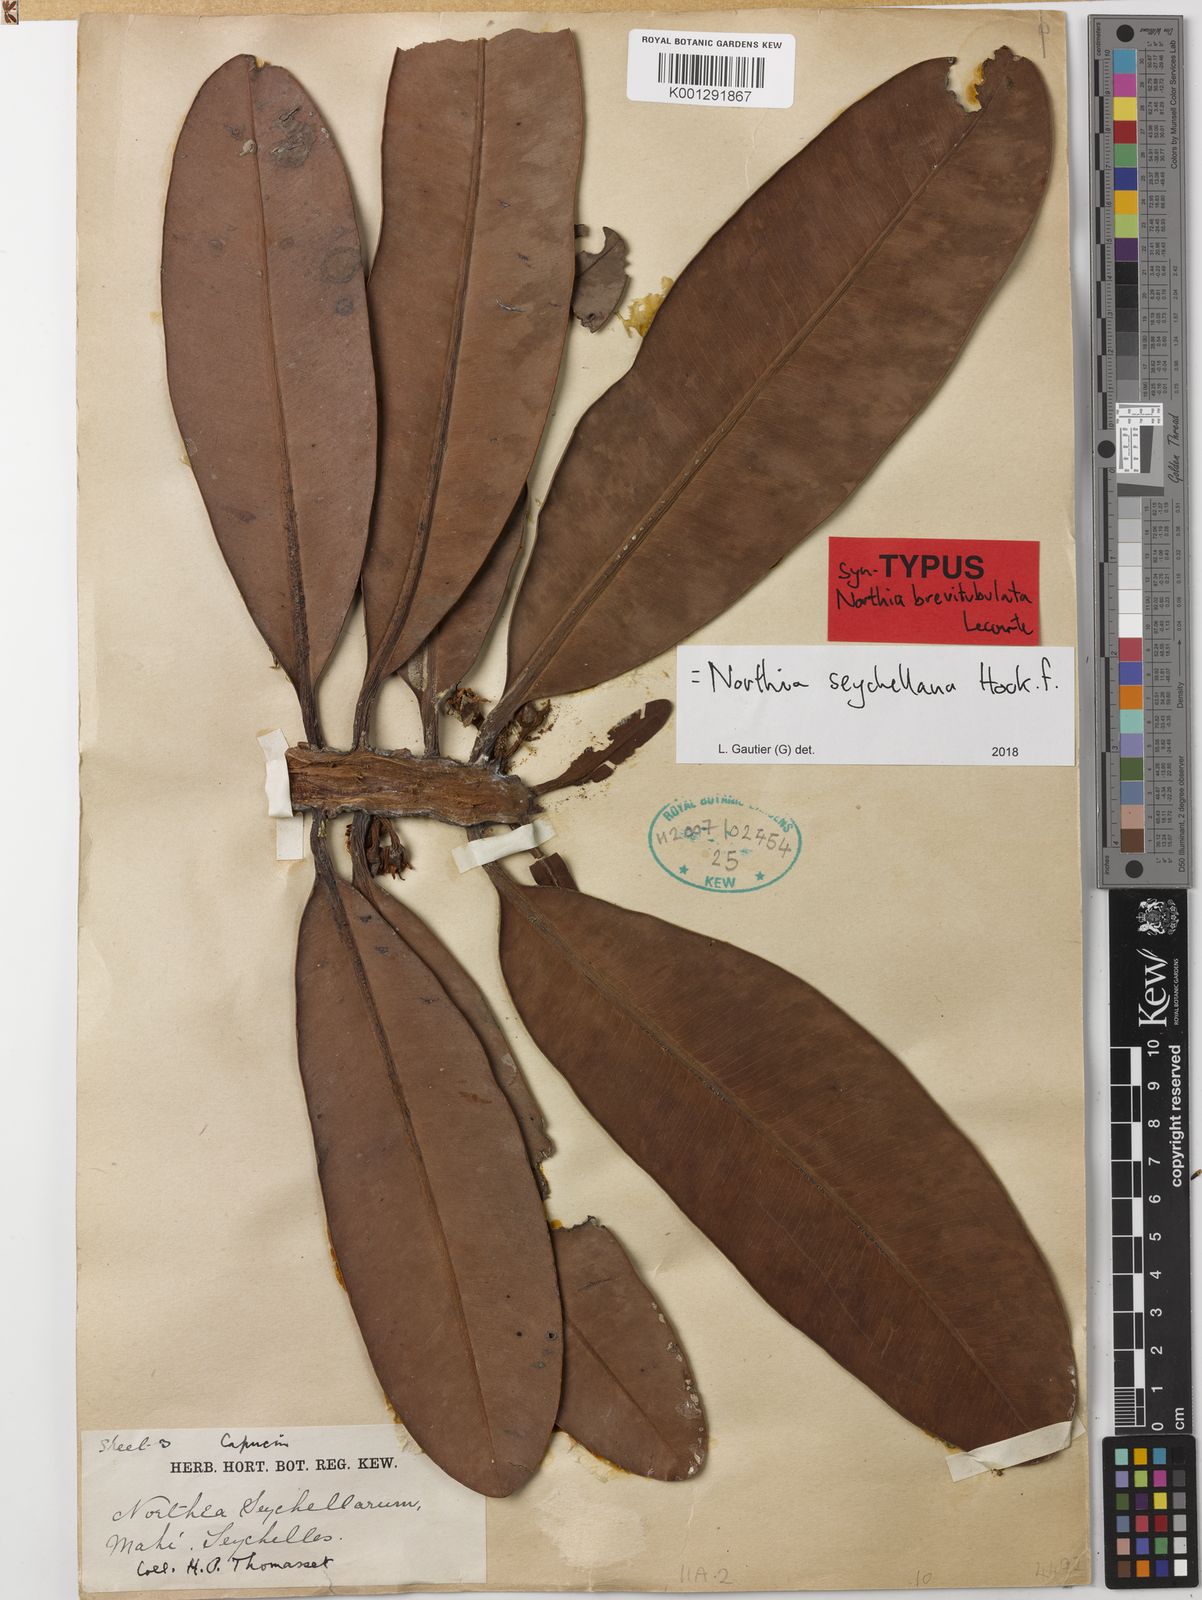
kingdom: Plantae
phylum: Tracheophyta
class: Magnoliopsida
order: Ericales
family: Sapotaceae
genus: Northia
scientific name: Northia seychellana
